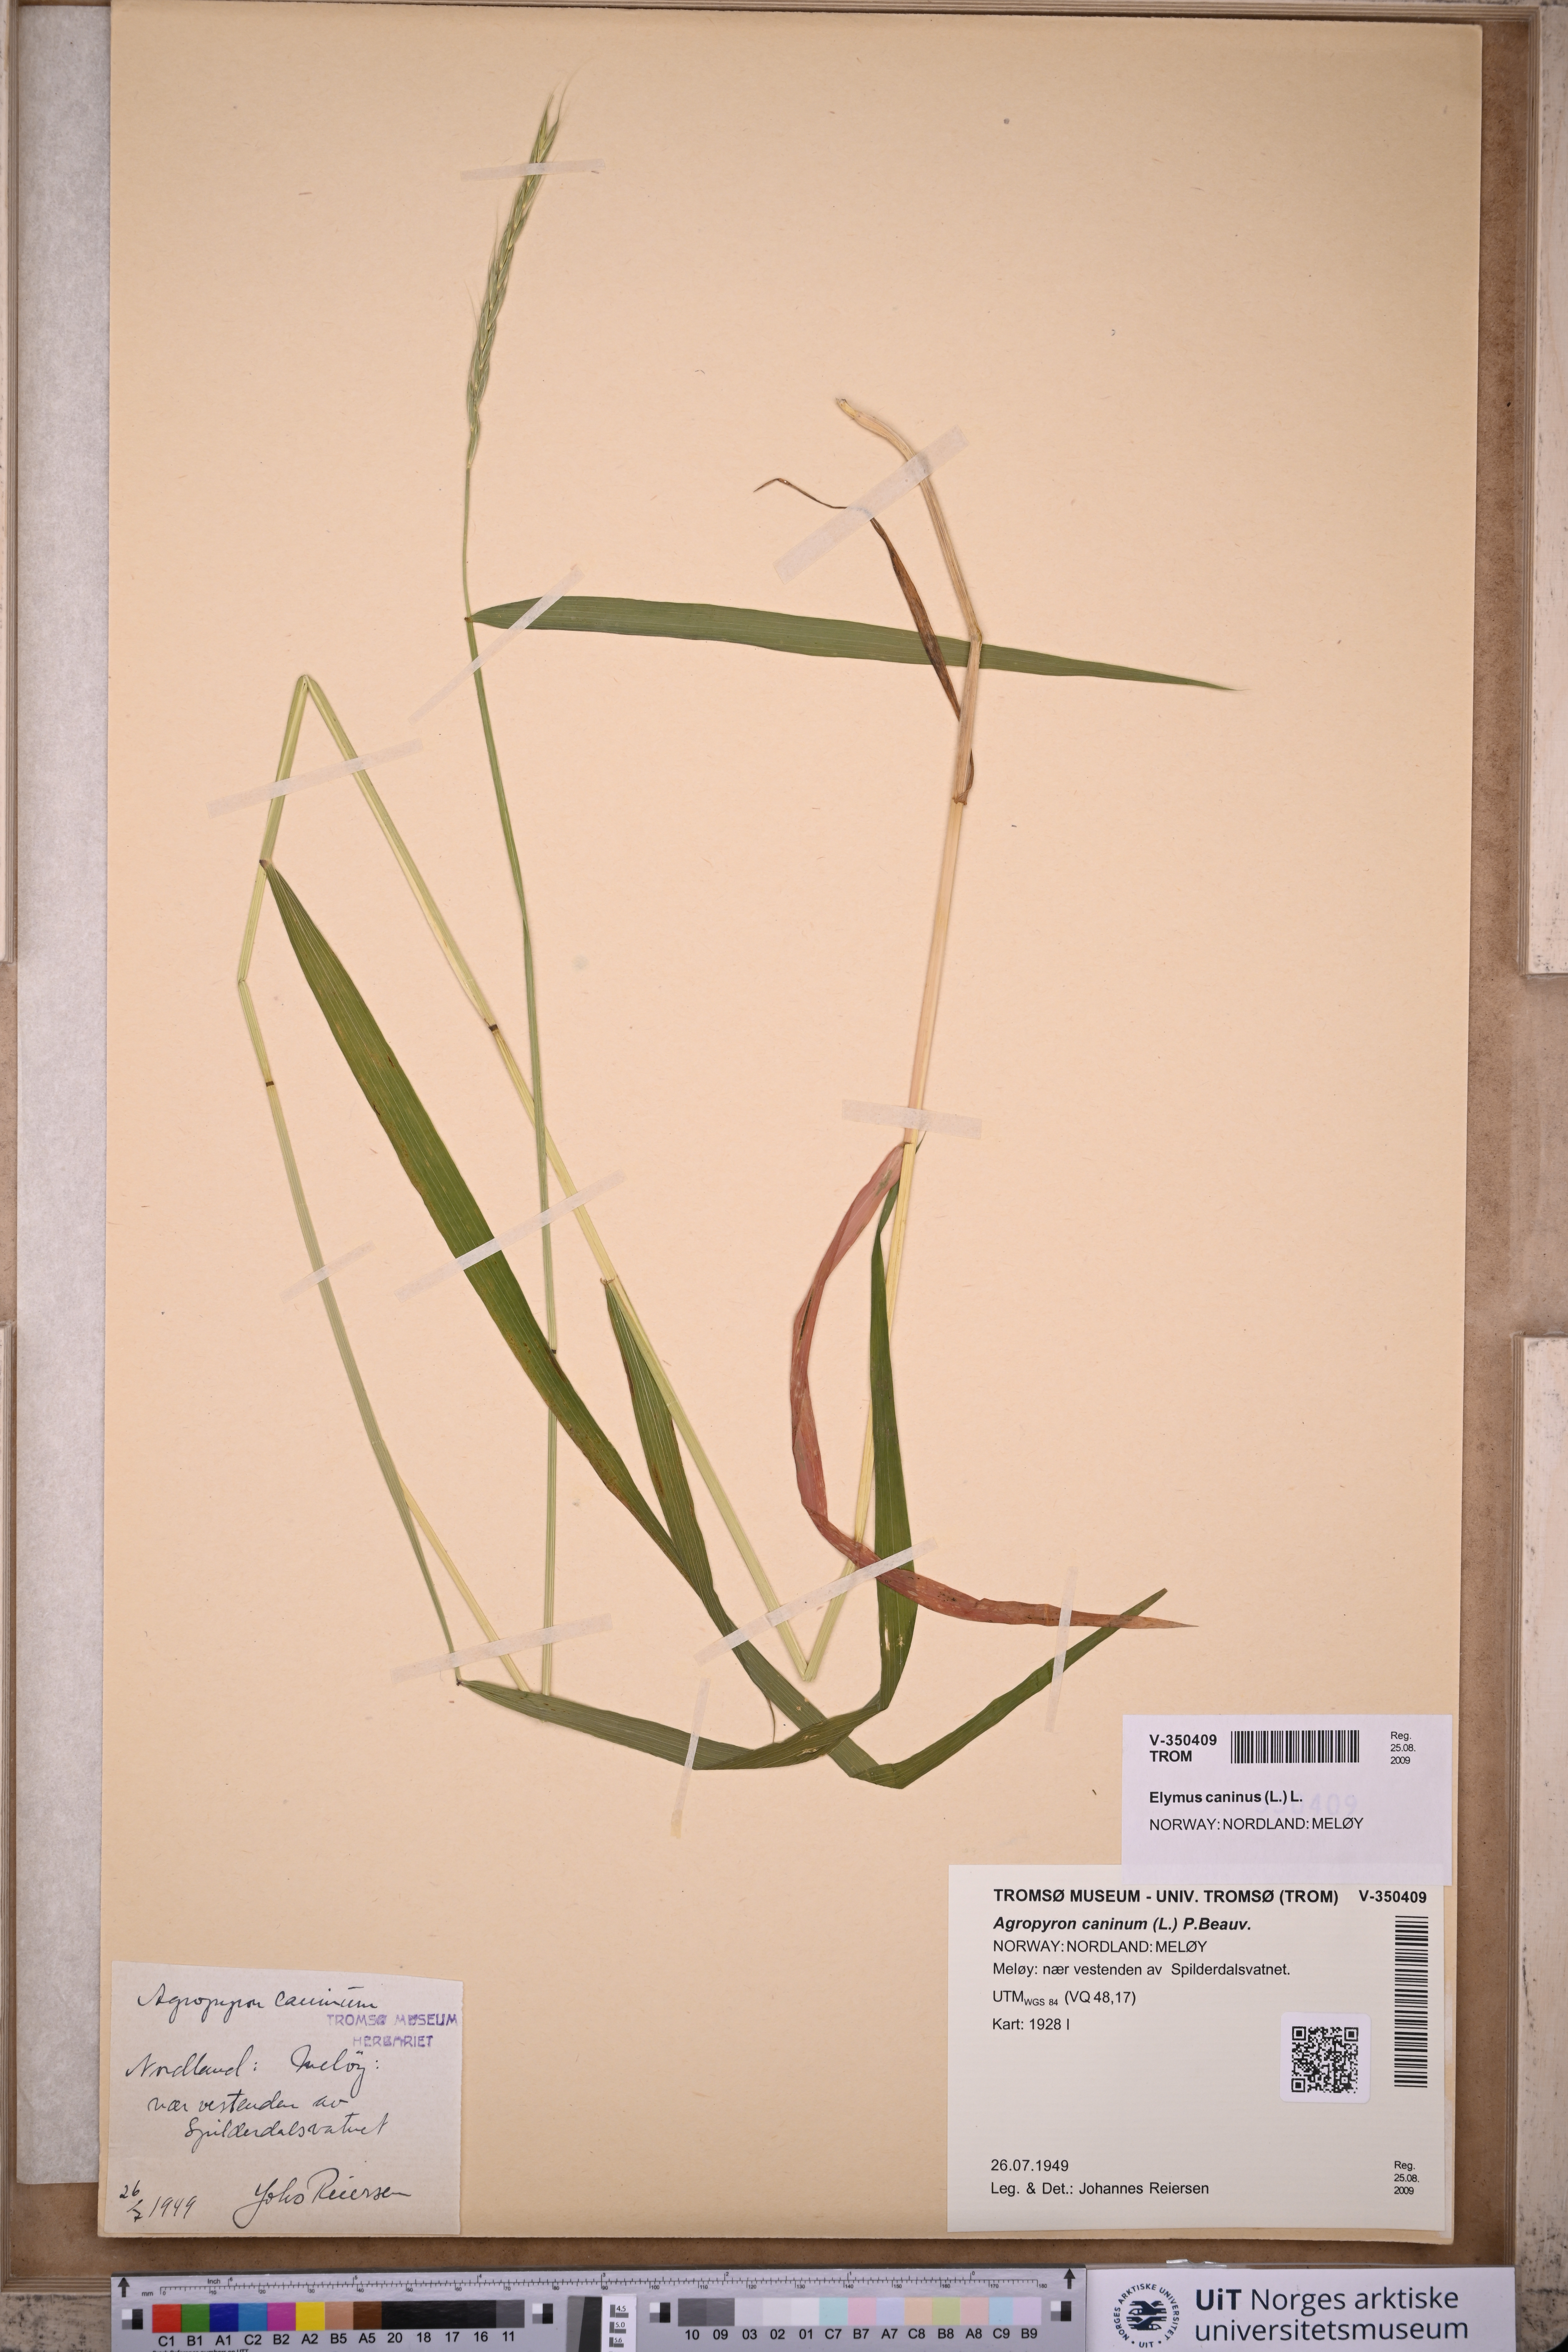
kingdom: Plantae
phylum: Tracheophyta
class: Liliopsida
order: Poales
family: Poaceae
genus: Elymus
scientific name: Elymus caninus
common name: Bearded couch
